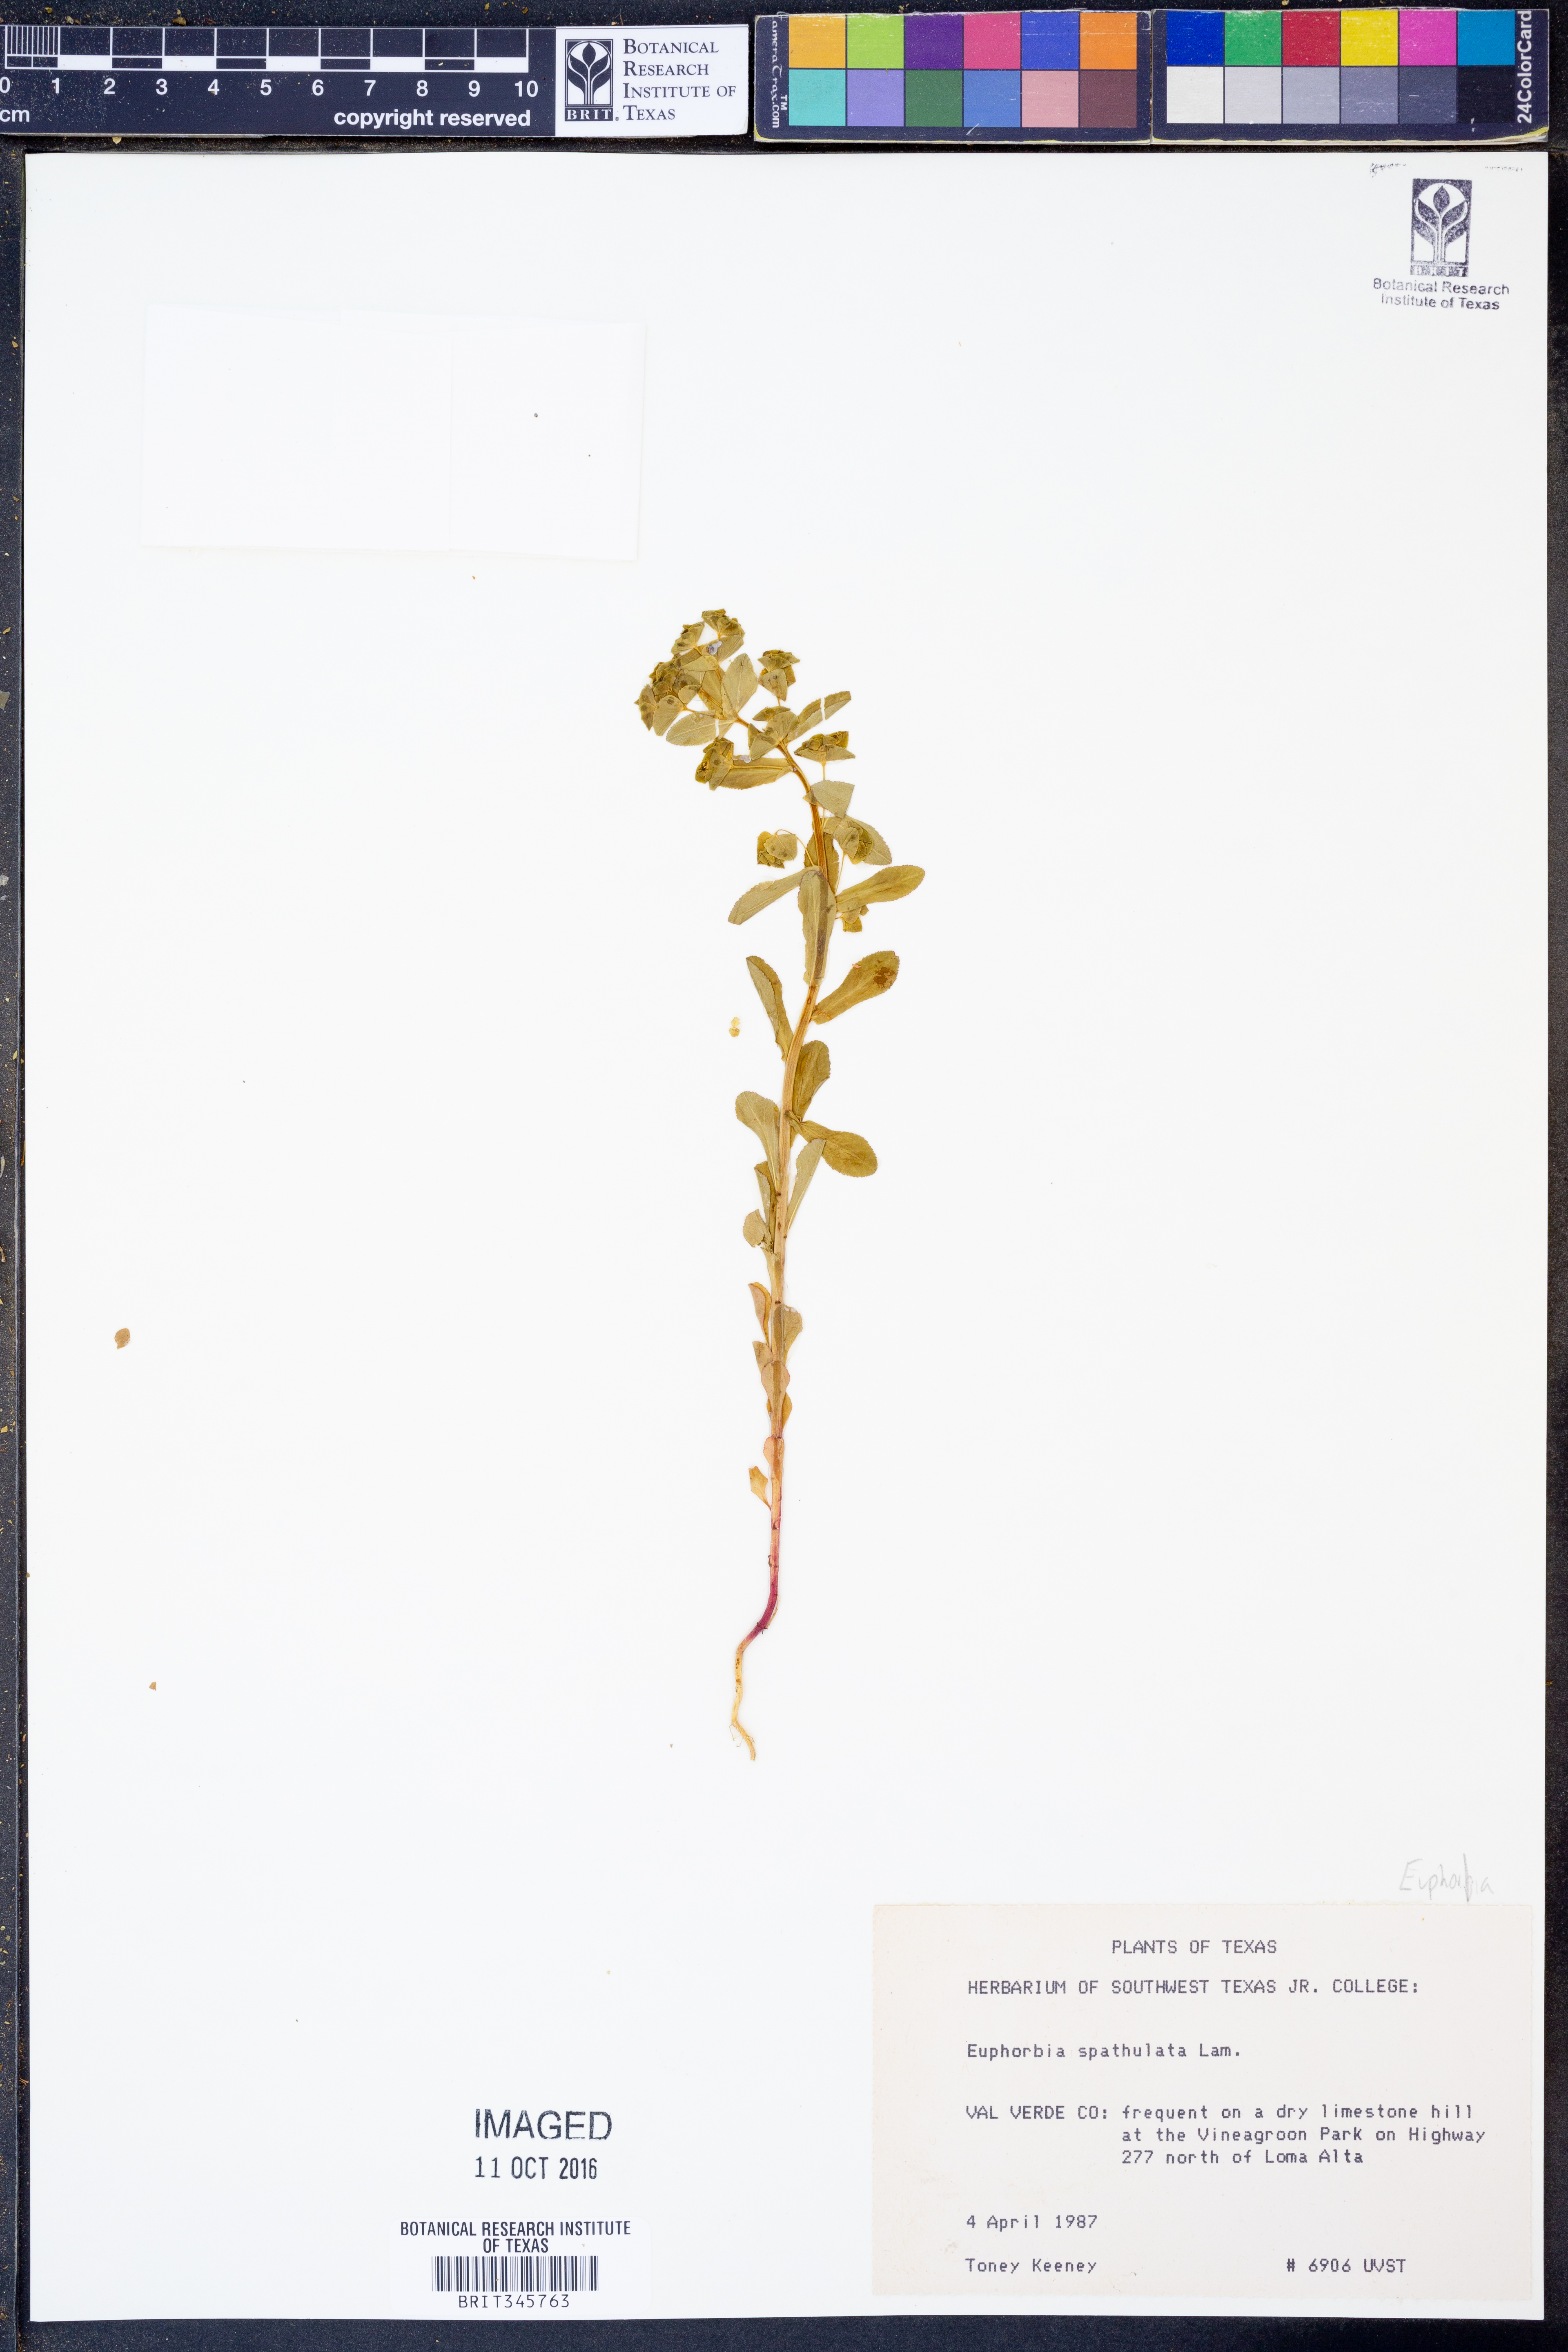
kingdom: Plantae
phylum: Tracheophyta
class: Magnoliopsida
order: Malpighiales
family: Euphorbiaceae
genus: Euphorbia
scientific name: Euphorbia spathulata
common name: Blunt spurge
